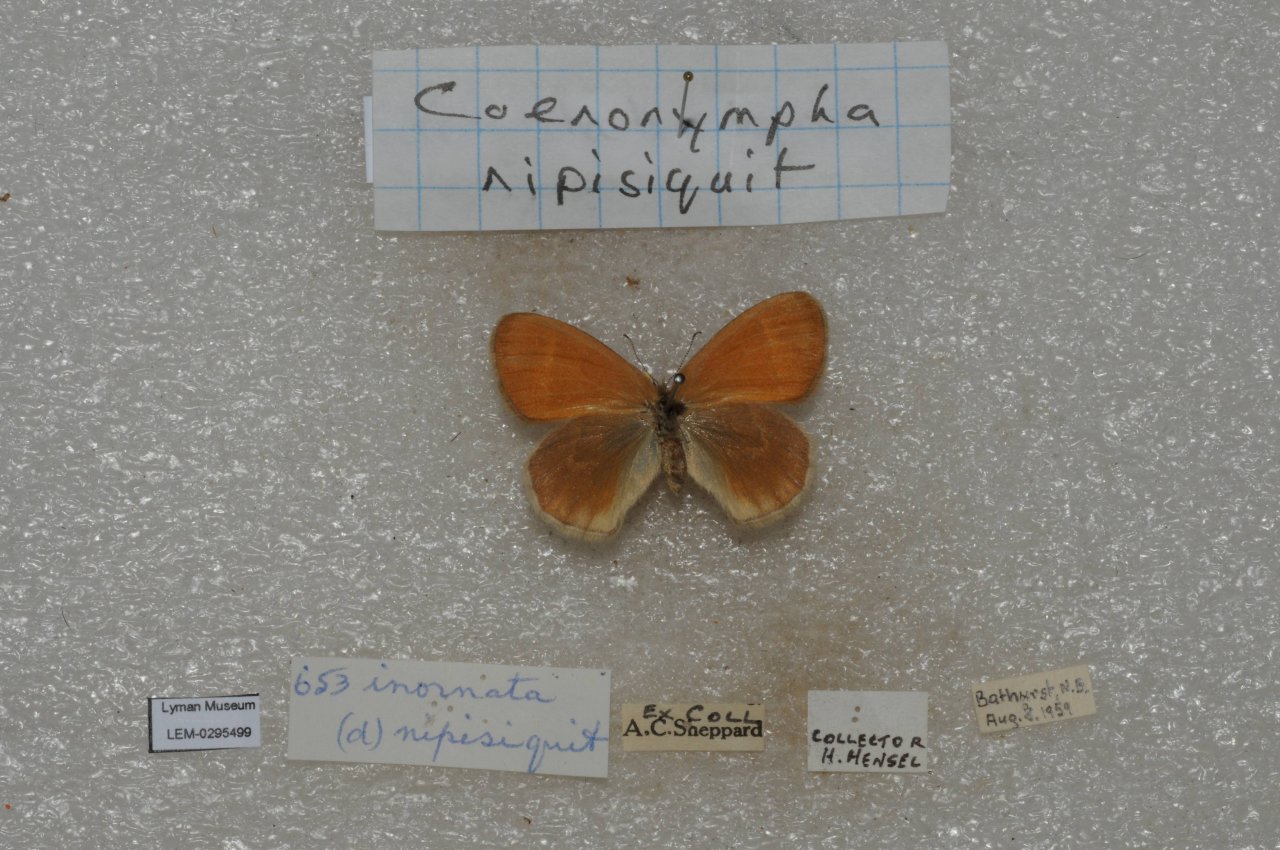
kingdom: Animalia
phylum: Arthropoda
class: Insecta
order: Lepidoptera
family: Nymphalidae
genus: Coenonympha
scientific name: Coenonympha inornata
